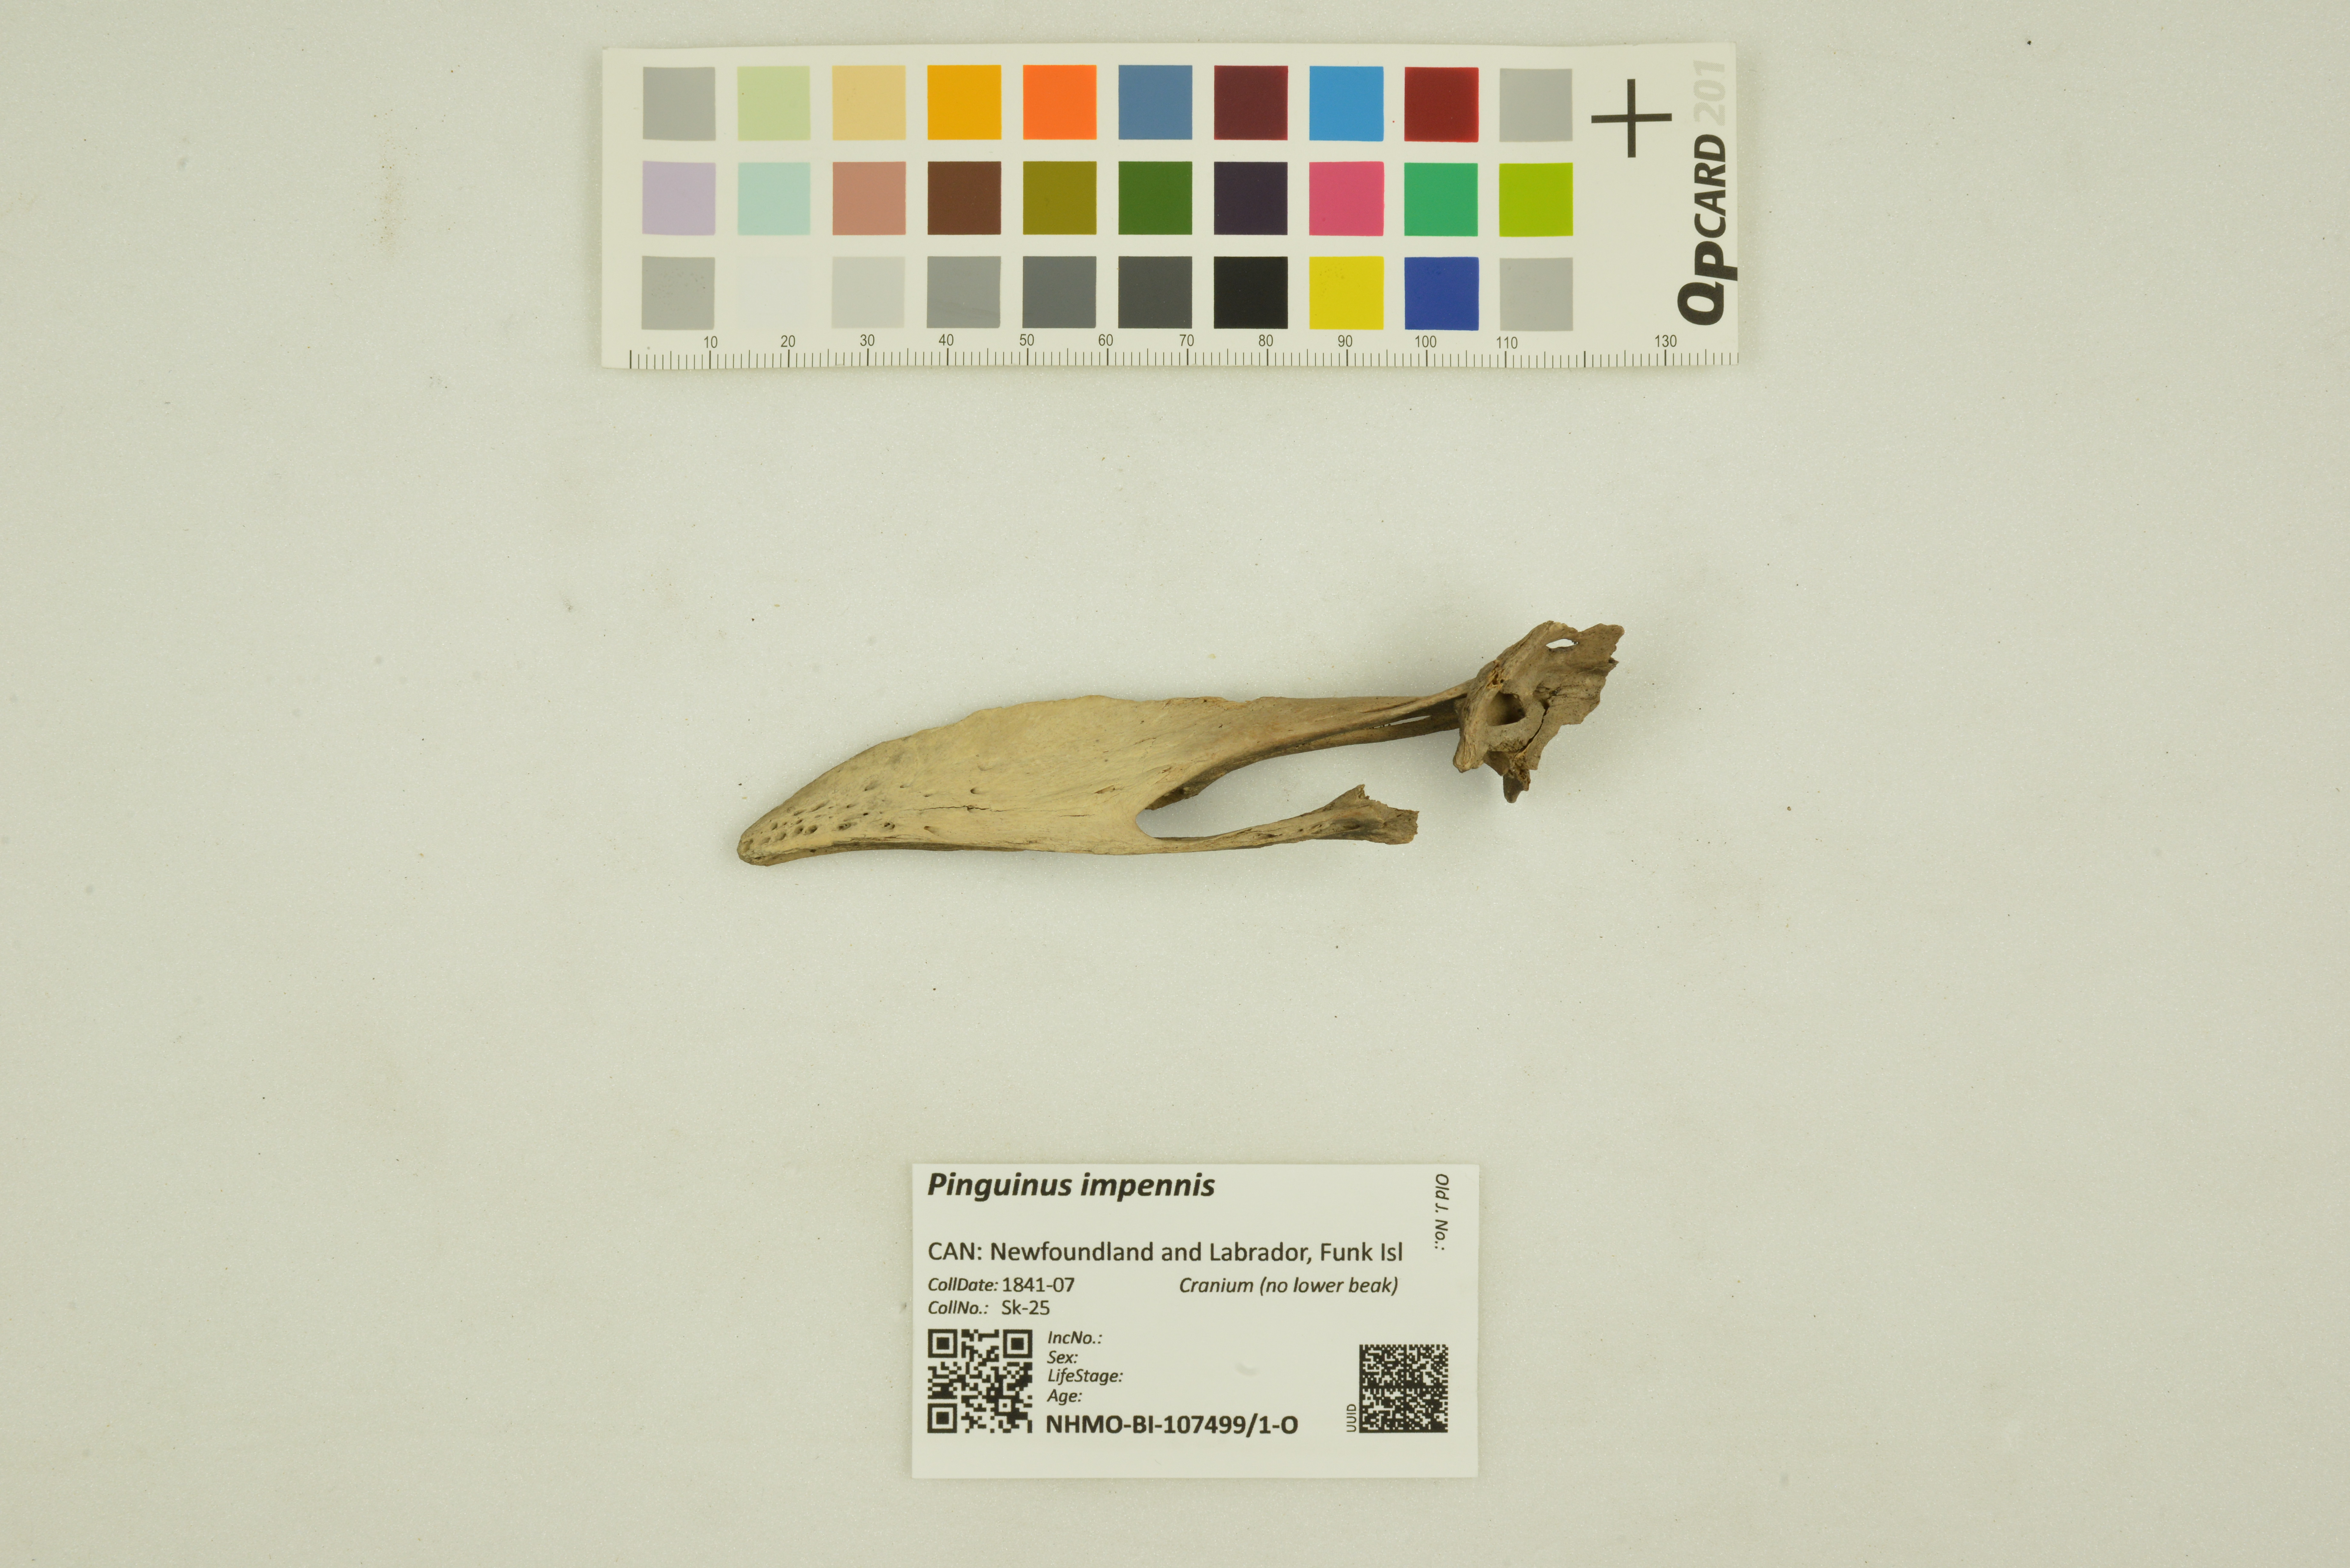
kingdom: Animalia
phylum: Chordata
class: Aves
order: Charadriiformes
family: Alcidae
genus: Pinguinus
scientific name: Pinguinus impennis
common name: Great auk
